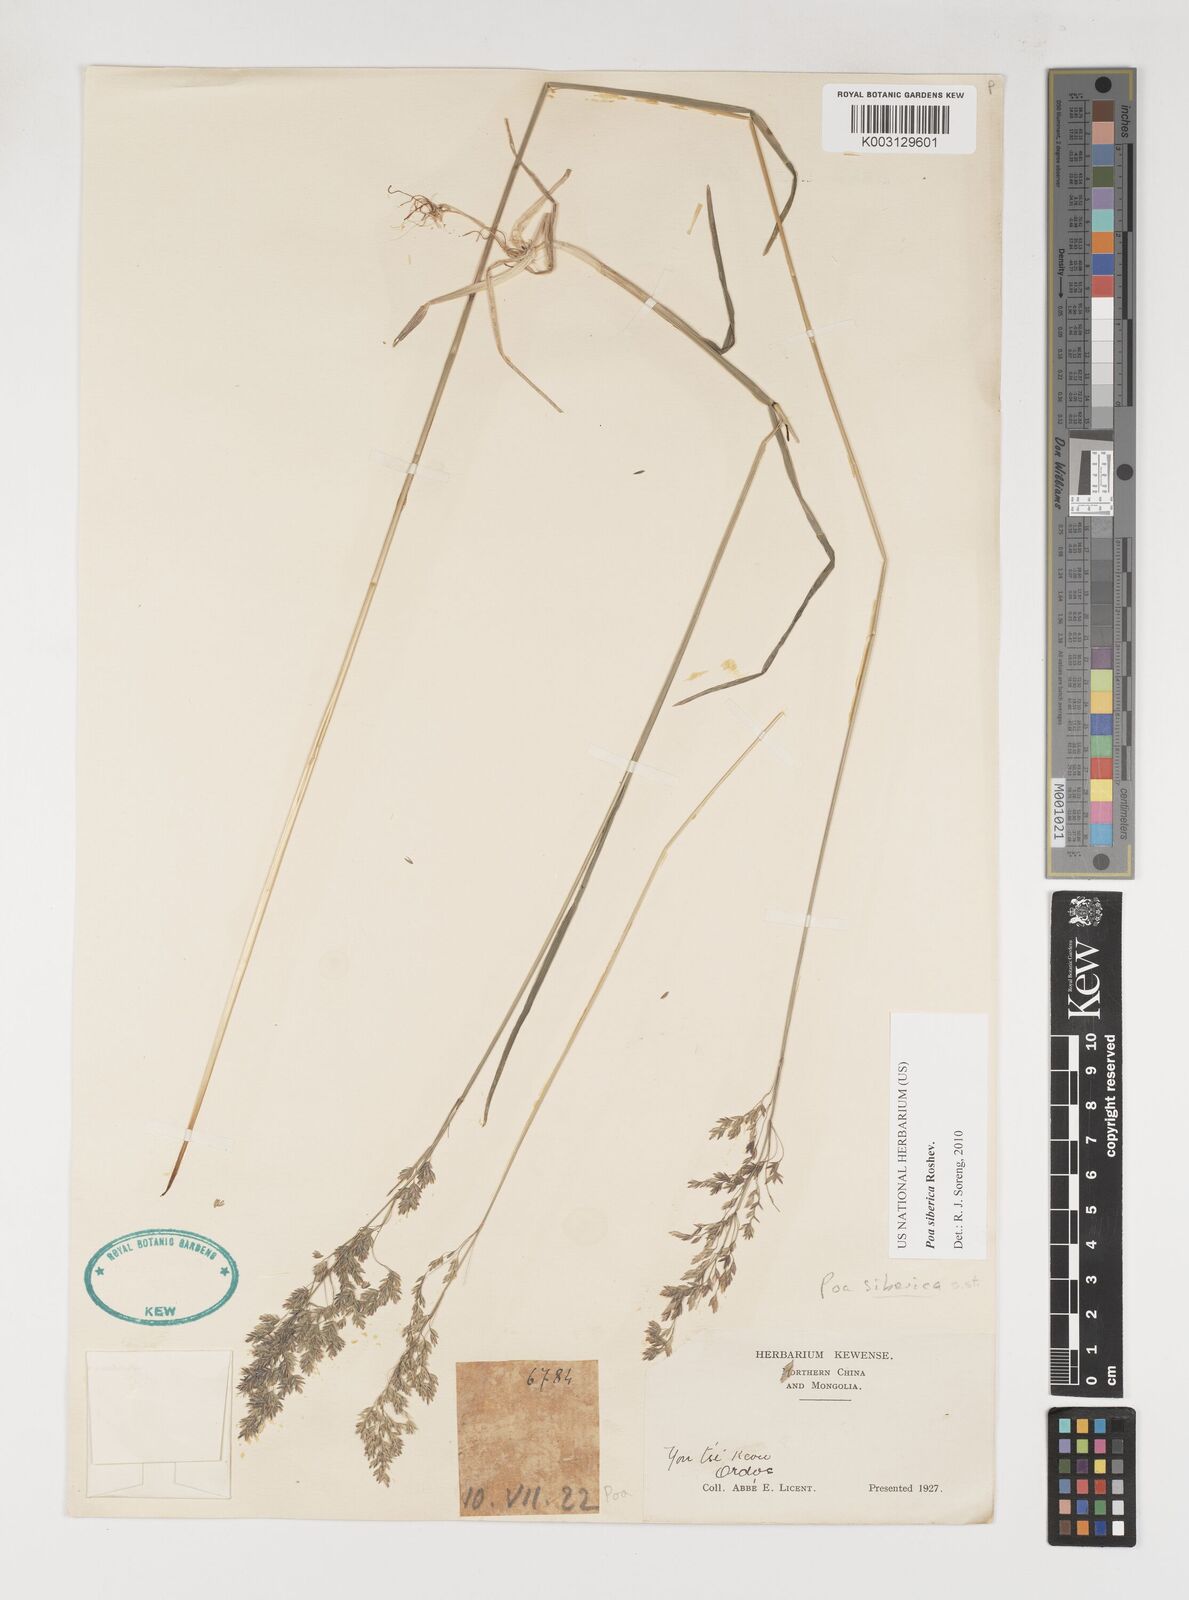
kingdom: Plantae
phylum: Tracheophyta
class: Liliopsida
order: Poales
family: Poaceae
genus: Poa
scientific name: Poa sibirica
